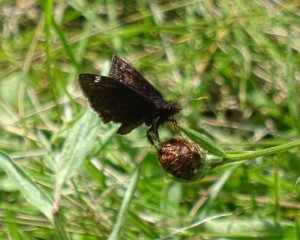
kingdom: Animalia
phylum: Arthropoda
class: Insecta
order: Lepidoptera
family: Hesperiidae
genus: Gesta
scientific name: Gesta
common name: Columbine Duskywing
